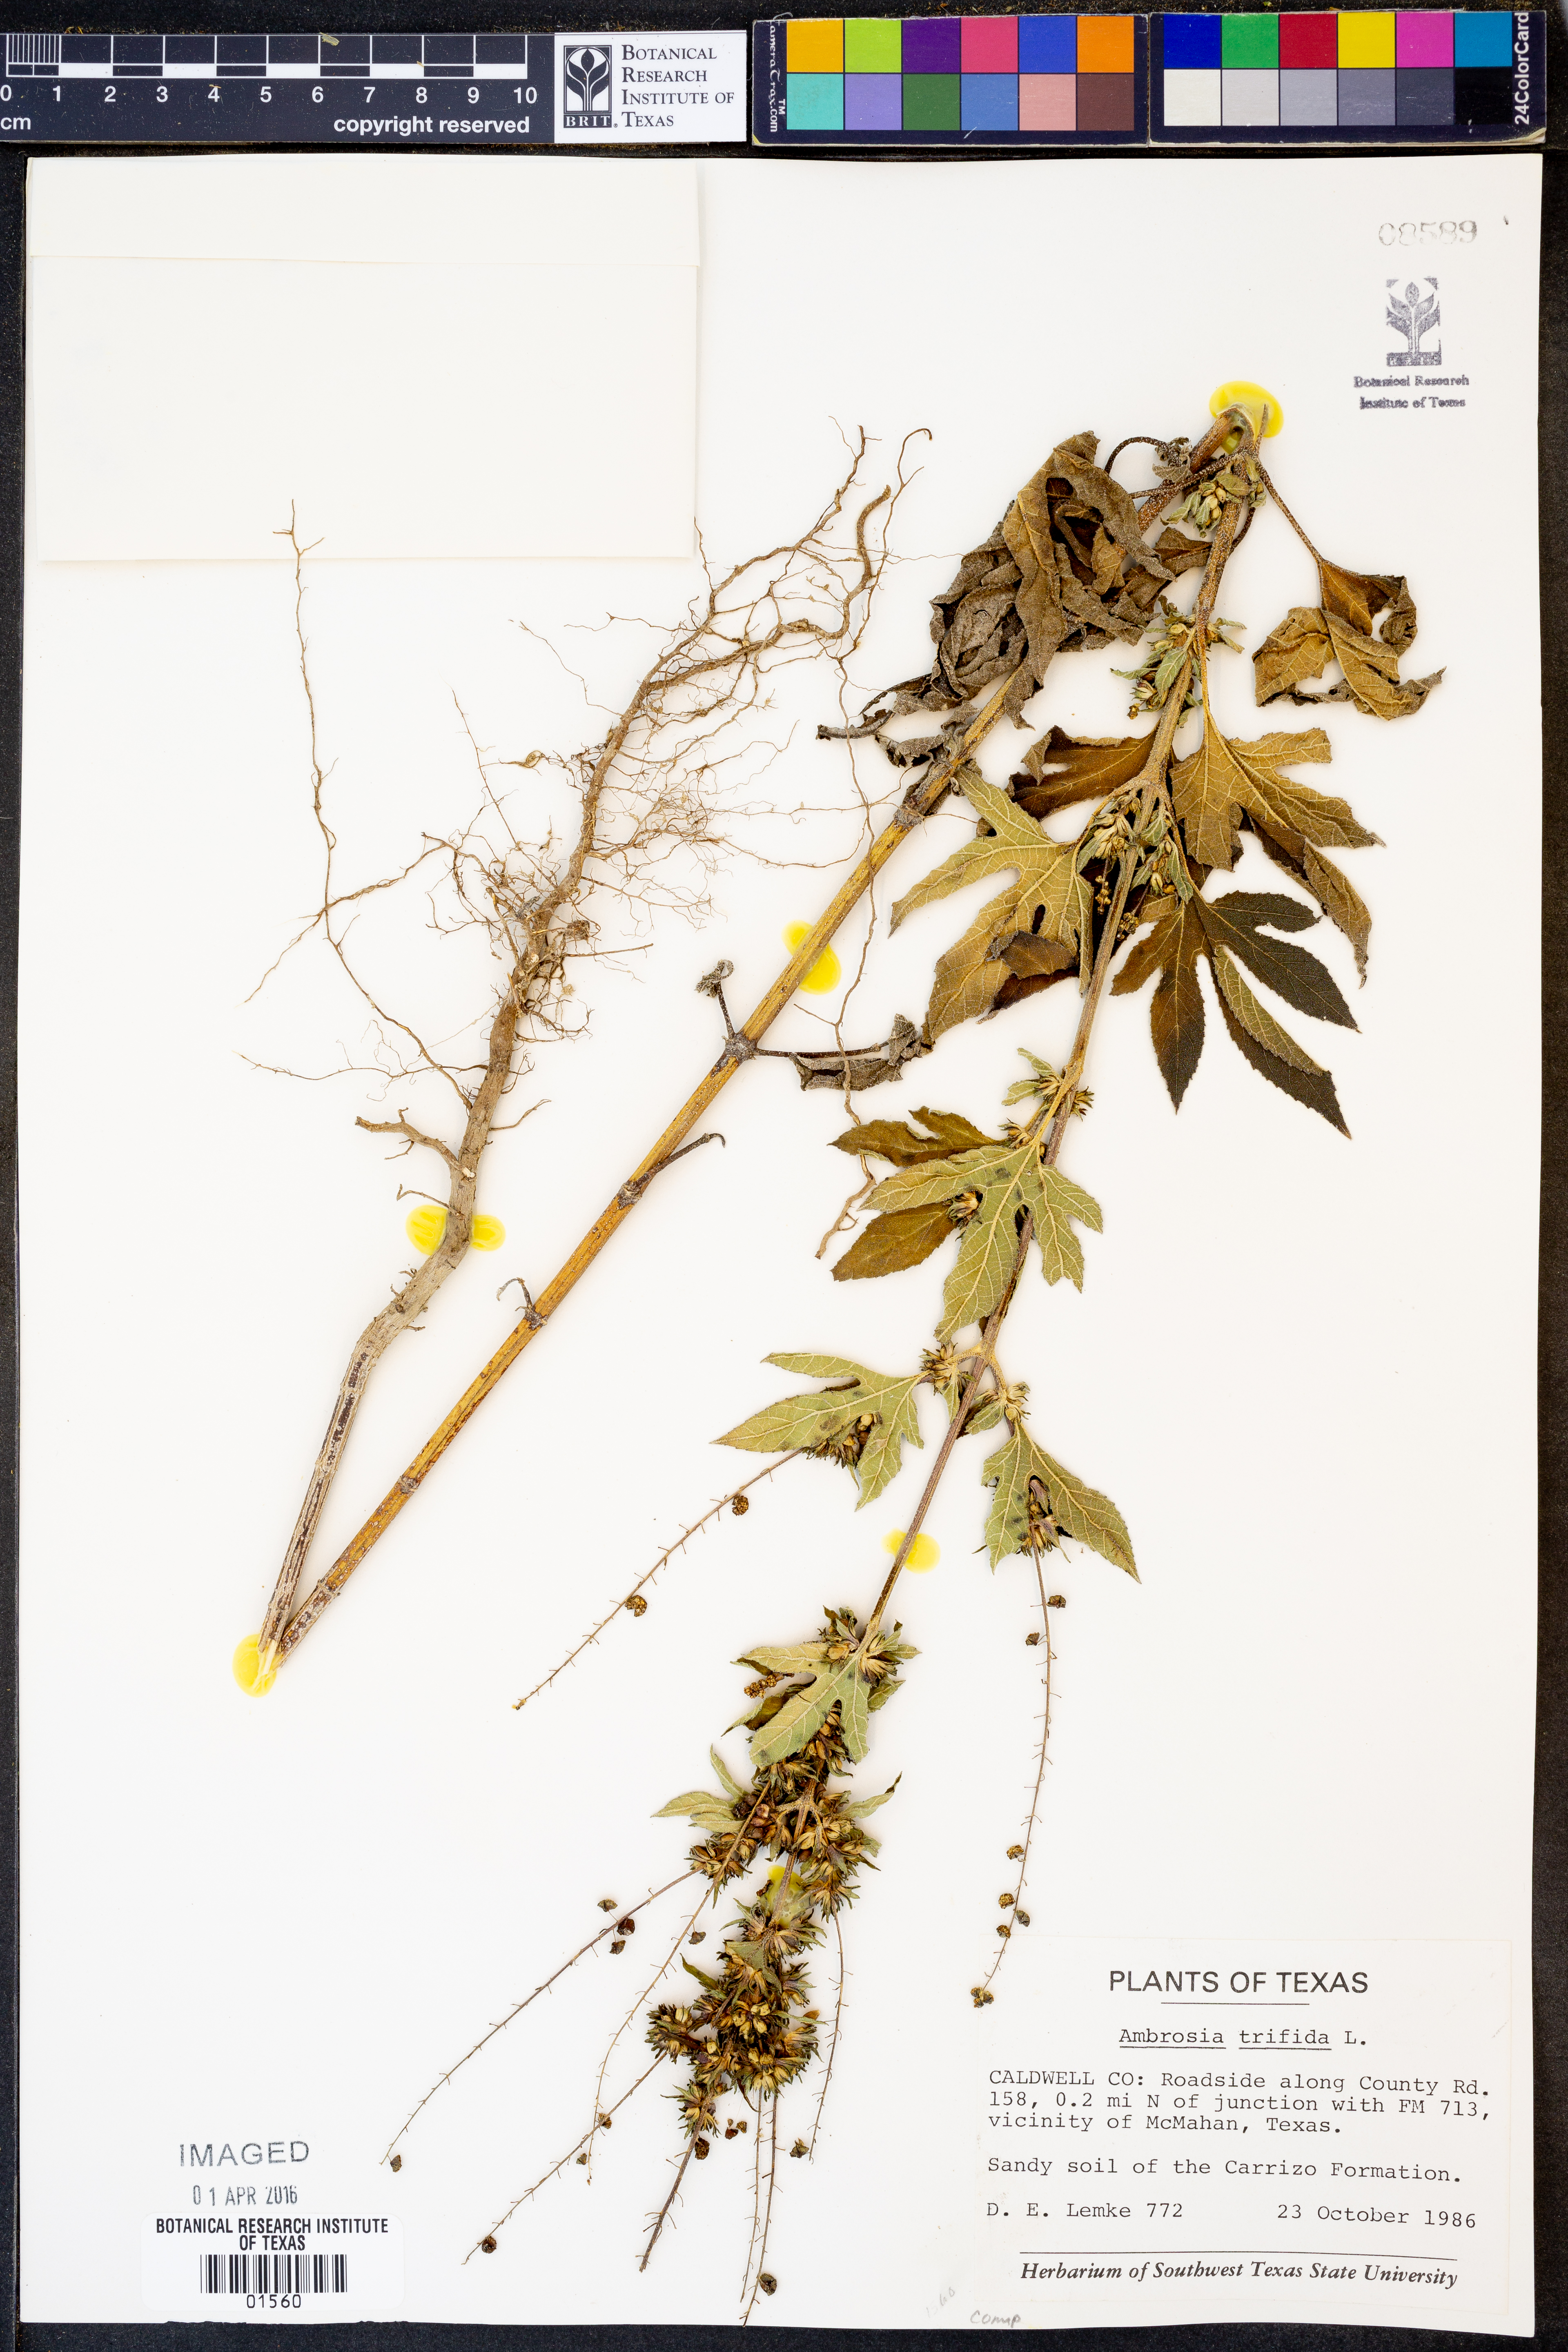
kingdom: Plantae
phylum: Tracheophyta
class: Magnoliopsida
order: Asterales
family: Asteraceae
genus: Ambrosia
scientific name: Ambrosia trifida
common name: Giant ragweed
